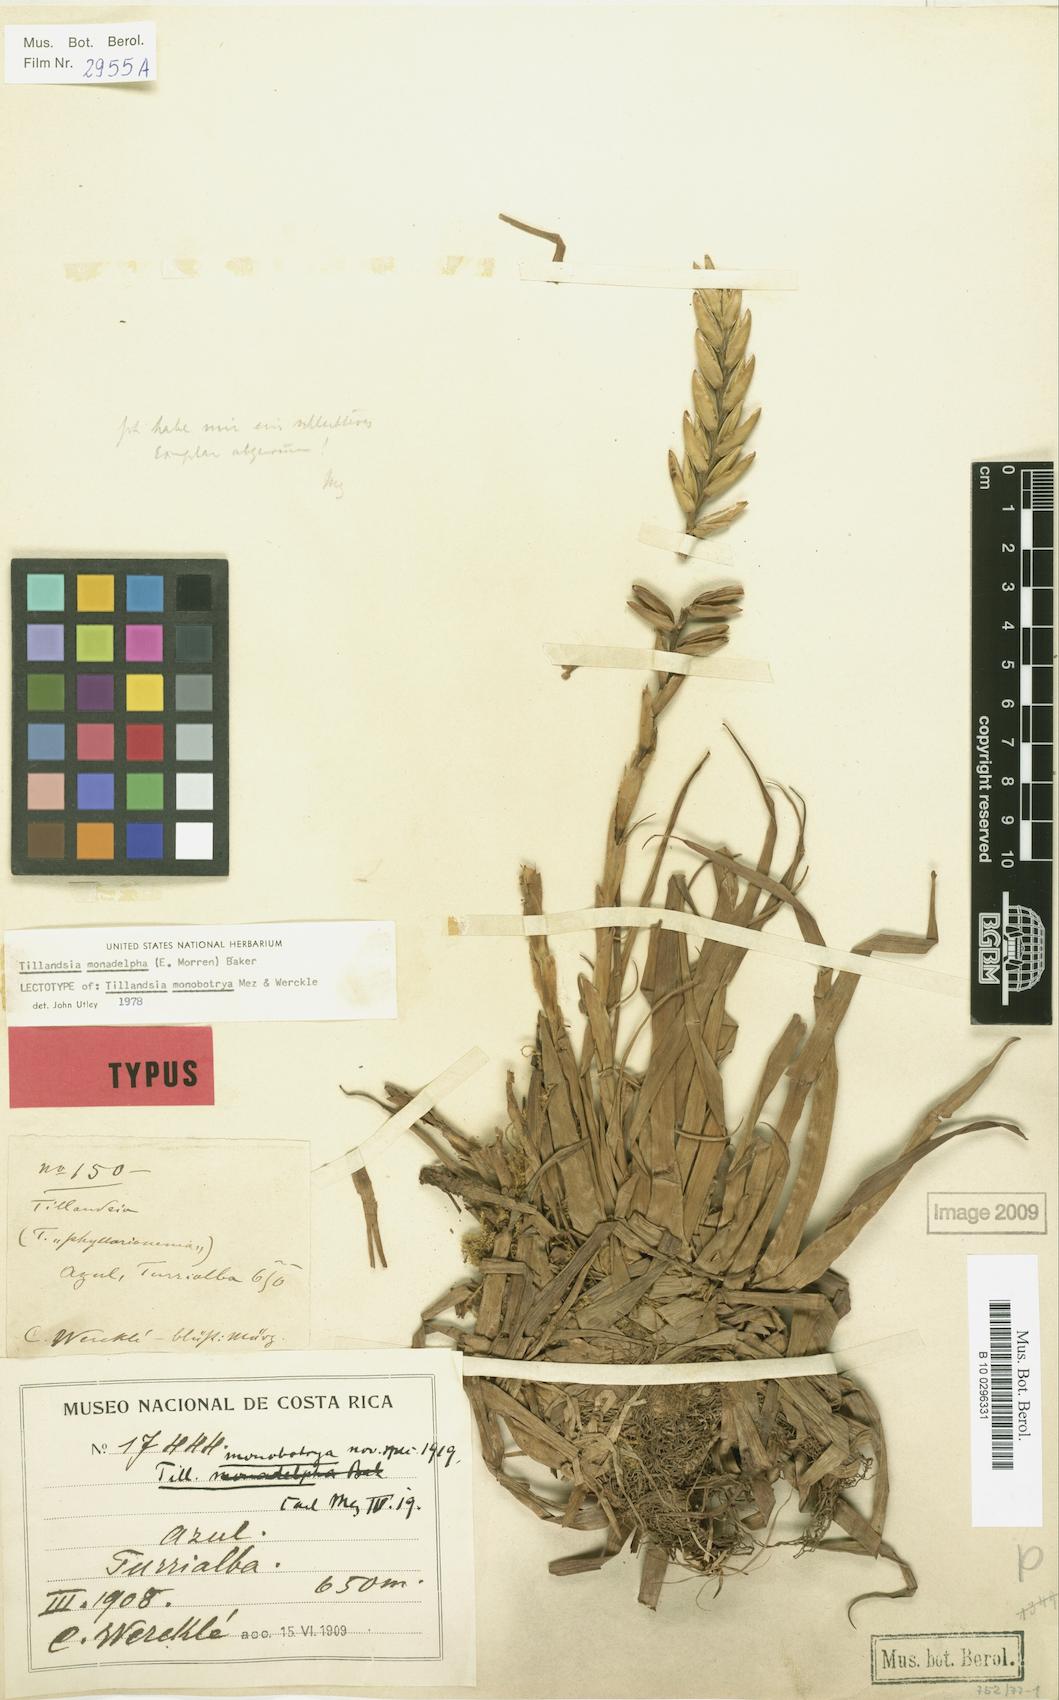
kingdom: Plantae
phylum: Tracheophyta
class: Liliopsida
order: Poales
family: Bromeliaceae
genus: Lemeltonia
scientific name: Lemeltonia monadelpha
